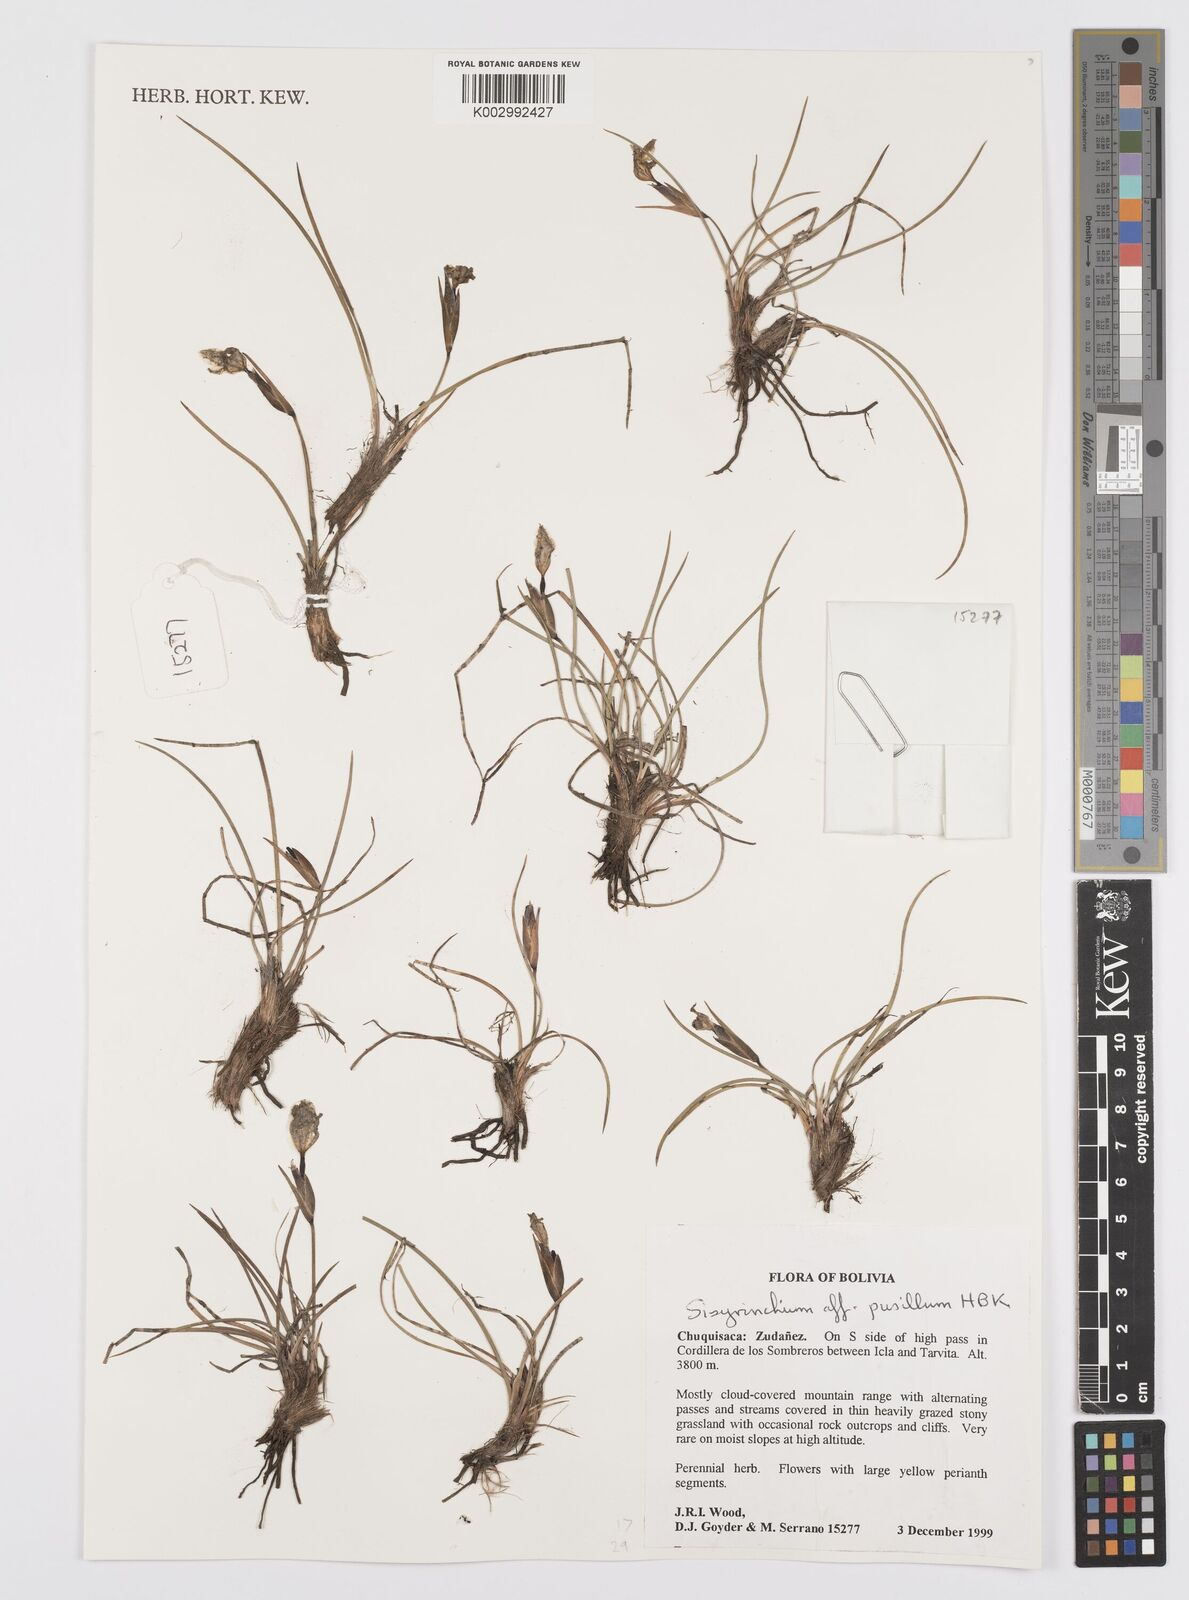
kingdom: Plantae
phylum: Tracheophyta
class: Liliopsida
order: Asparagales
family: Iridaceae
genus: Sisyrinchium
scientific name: Sisyrinchium pusillum
